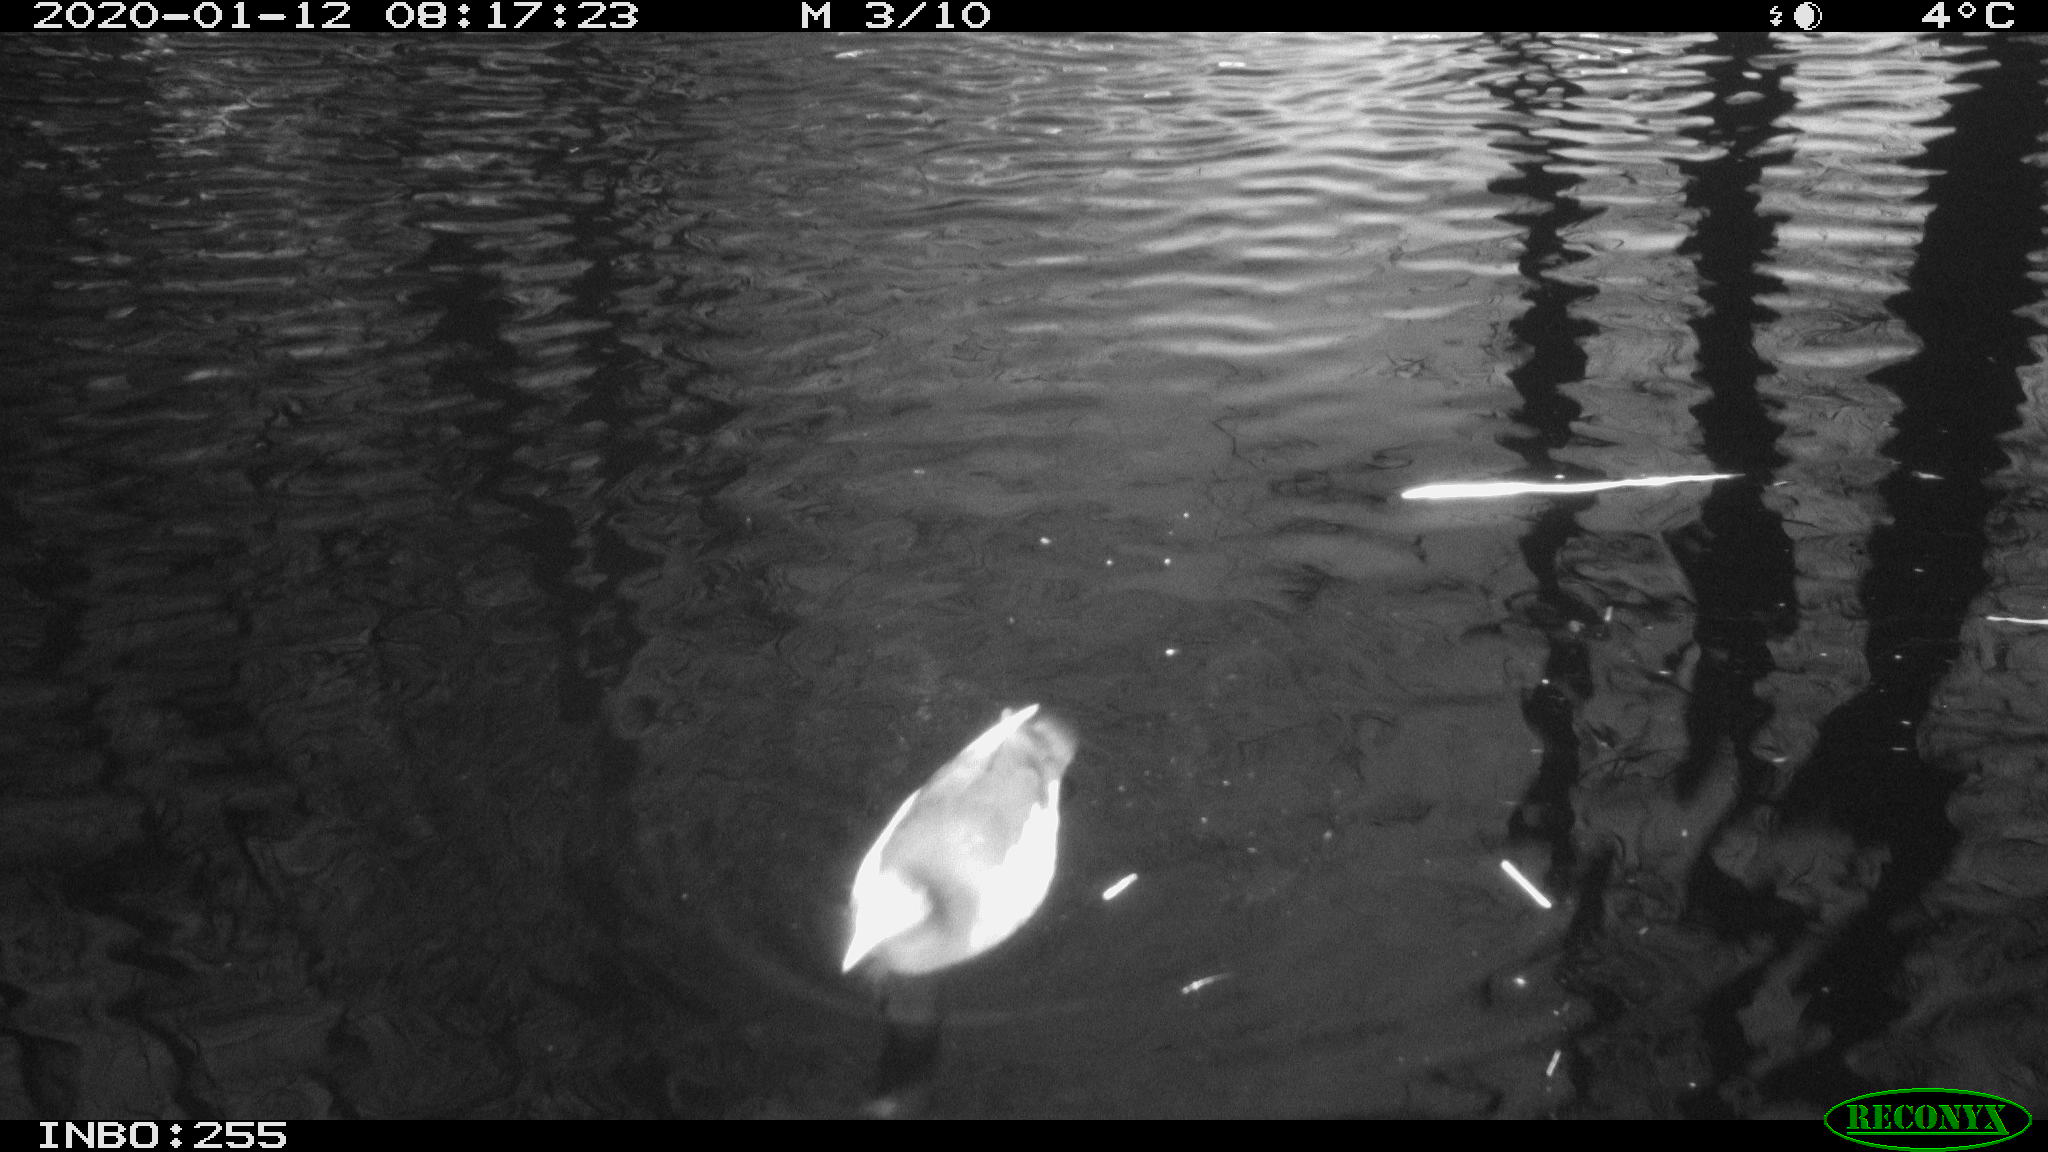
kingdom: Animalia
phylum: Chordata
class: Aves
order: Gruiformes
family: Rallidae
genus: Gallinula
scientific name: Gallinula chloropus
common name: Common moorhen
